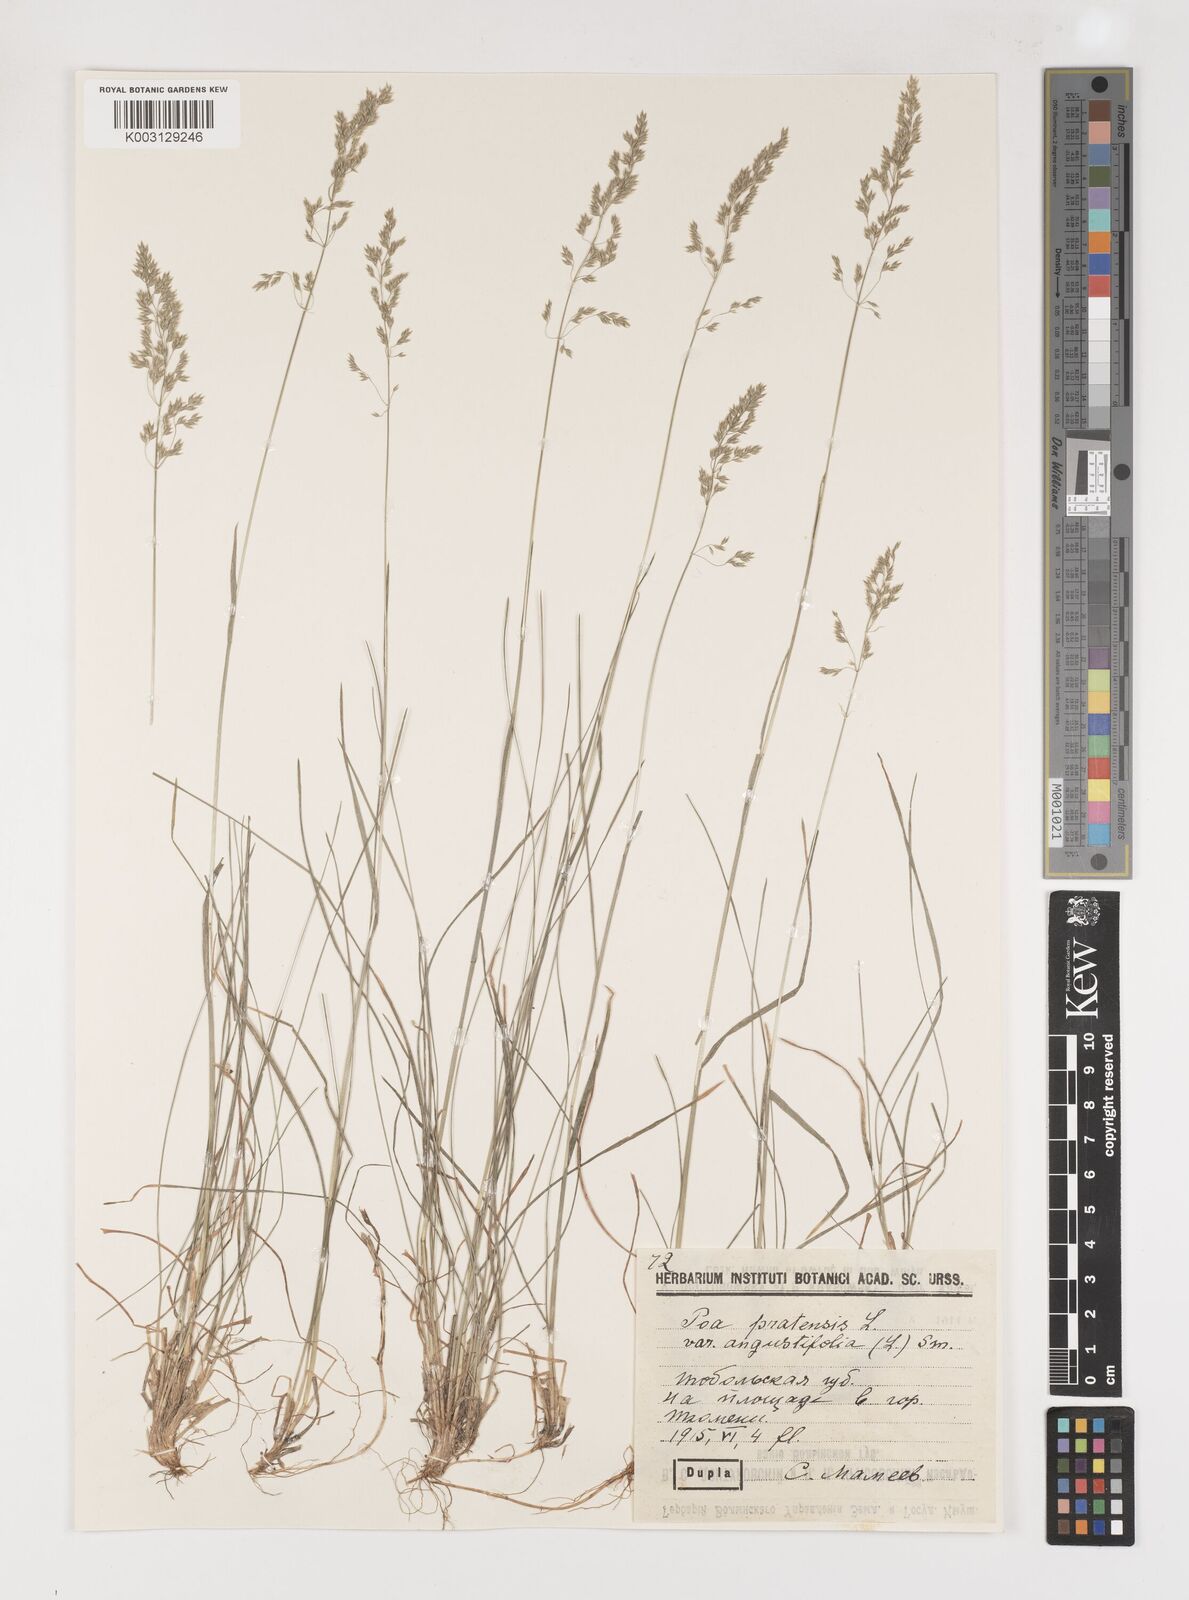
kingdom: Plantae
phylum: Tracheophyta
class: Liliopsida
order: Poales
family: Poaceae
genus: Poa
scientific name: Poa angustifolia
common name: Narrow-leaved meadow-grass
